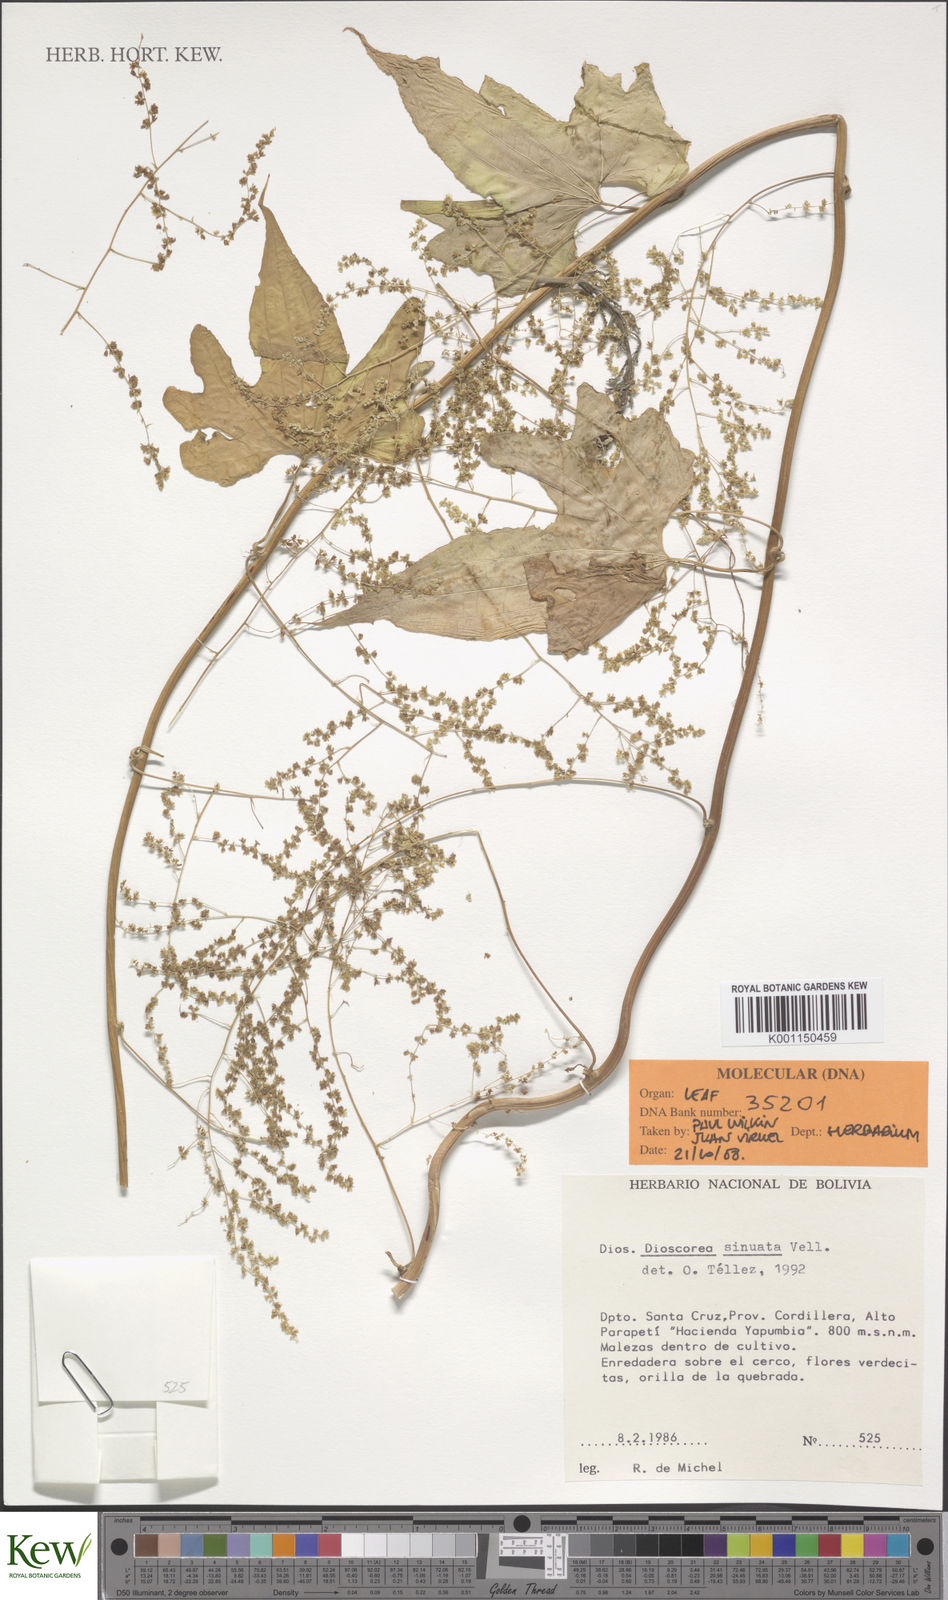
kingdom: Plantae
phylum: Tracheophyta
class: Liliopsida
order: Dioscoreales
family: Dioscoreaceae
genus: Dioscorea
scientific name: Dioscorea sinuata
